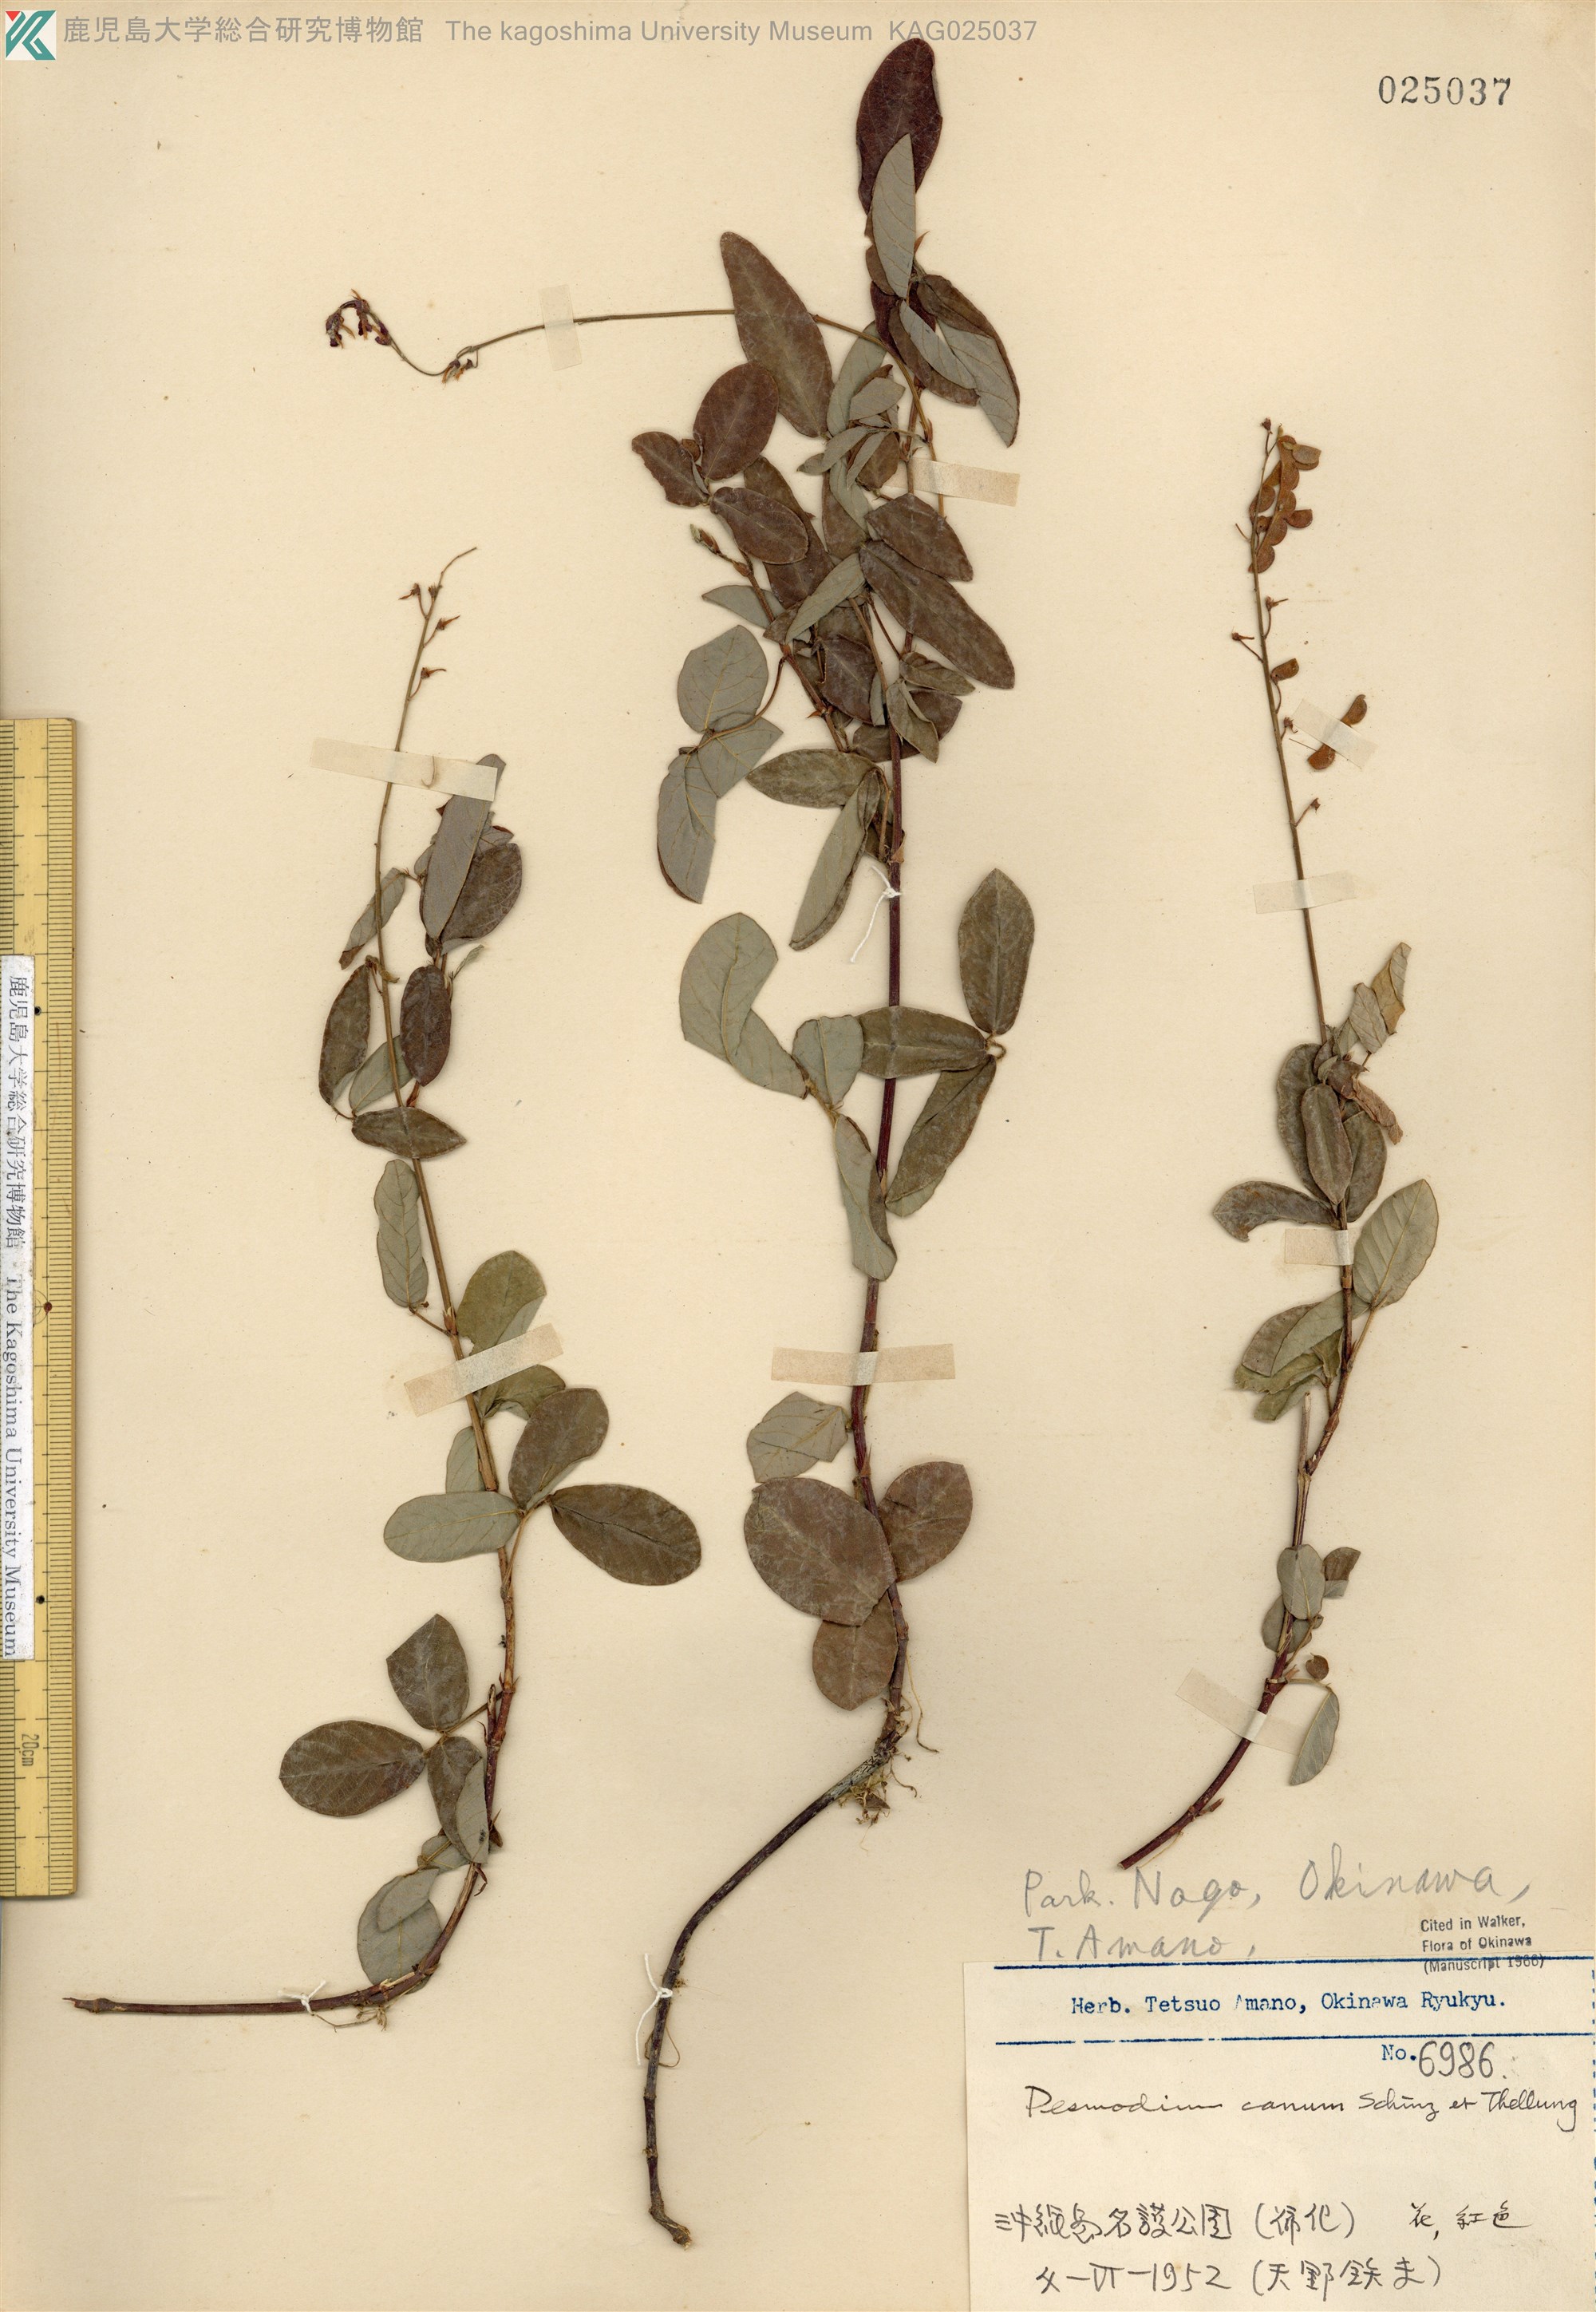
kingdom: Plantae
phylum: Tracheophyta
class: Magnoliopsida
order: Fabales
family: Fabaceae
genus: Desmodium
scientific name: Desmodium incanum
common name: Tickclover
